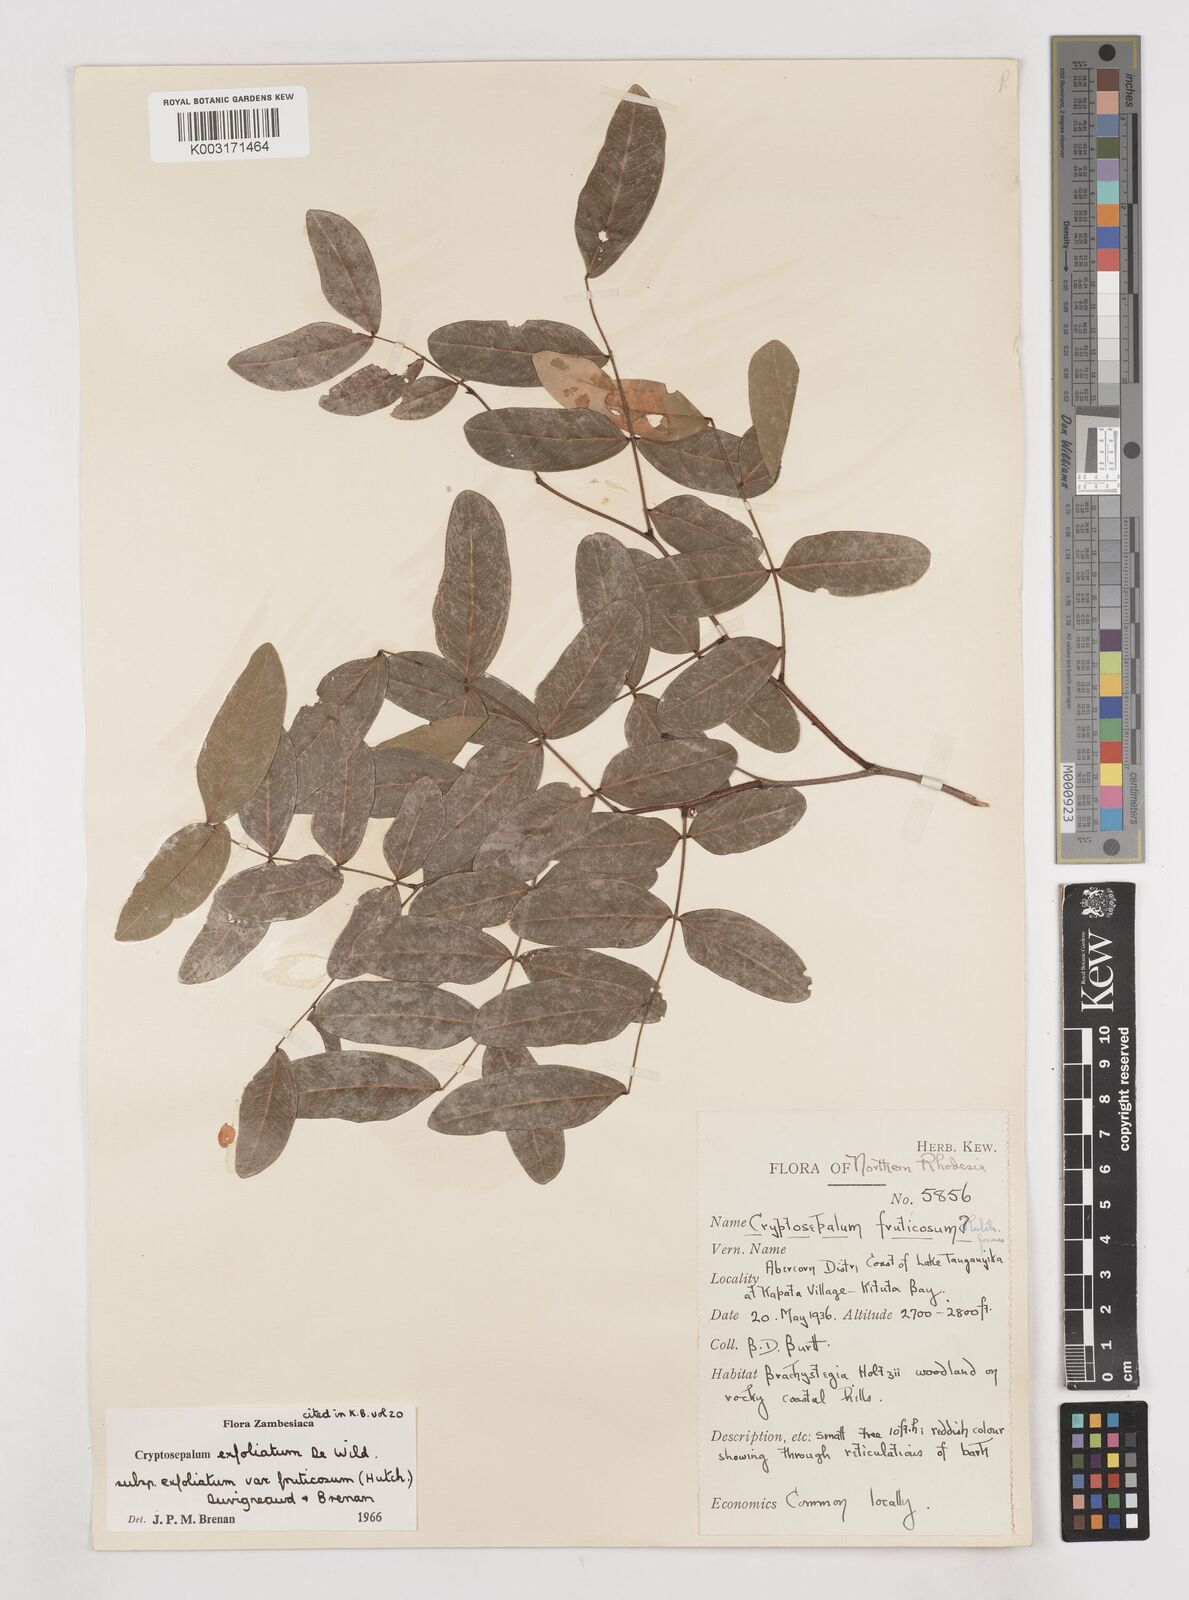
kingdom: Plantae
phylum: Tracheophyta
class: Magnoliopsida
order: Fabales
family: Fabaceae
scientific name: Fabaceae
